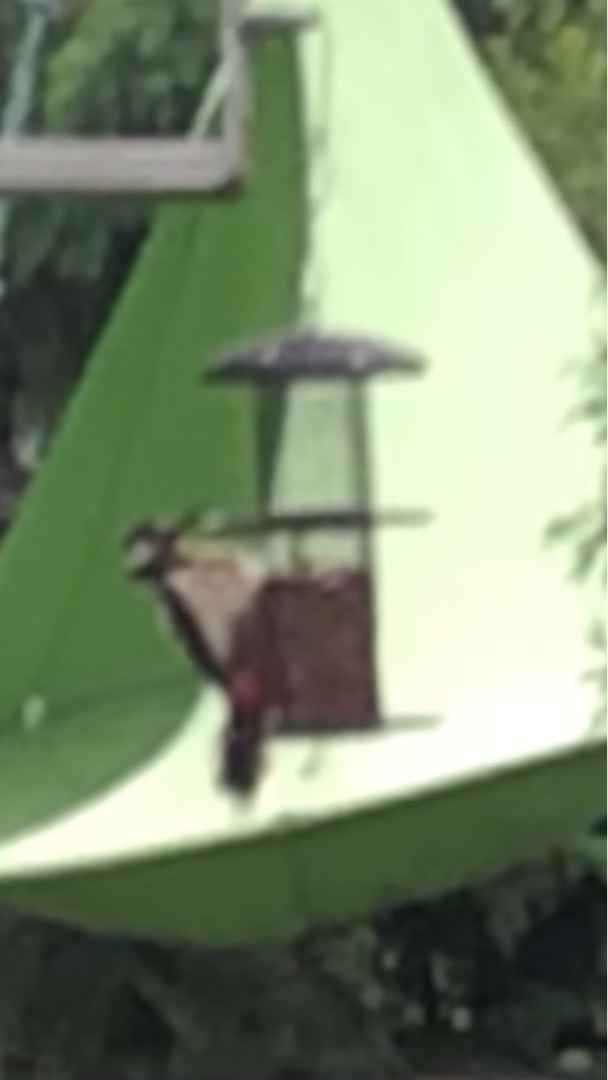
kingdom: Animalia
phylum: Chordata
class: Aves
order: Piciformes
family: Picidae
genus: Dendrocopos
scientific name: Dendrocopos major
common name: Stor flagspætte
